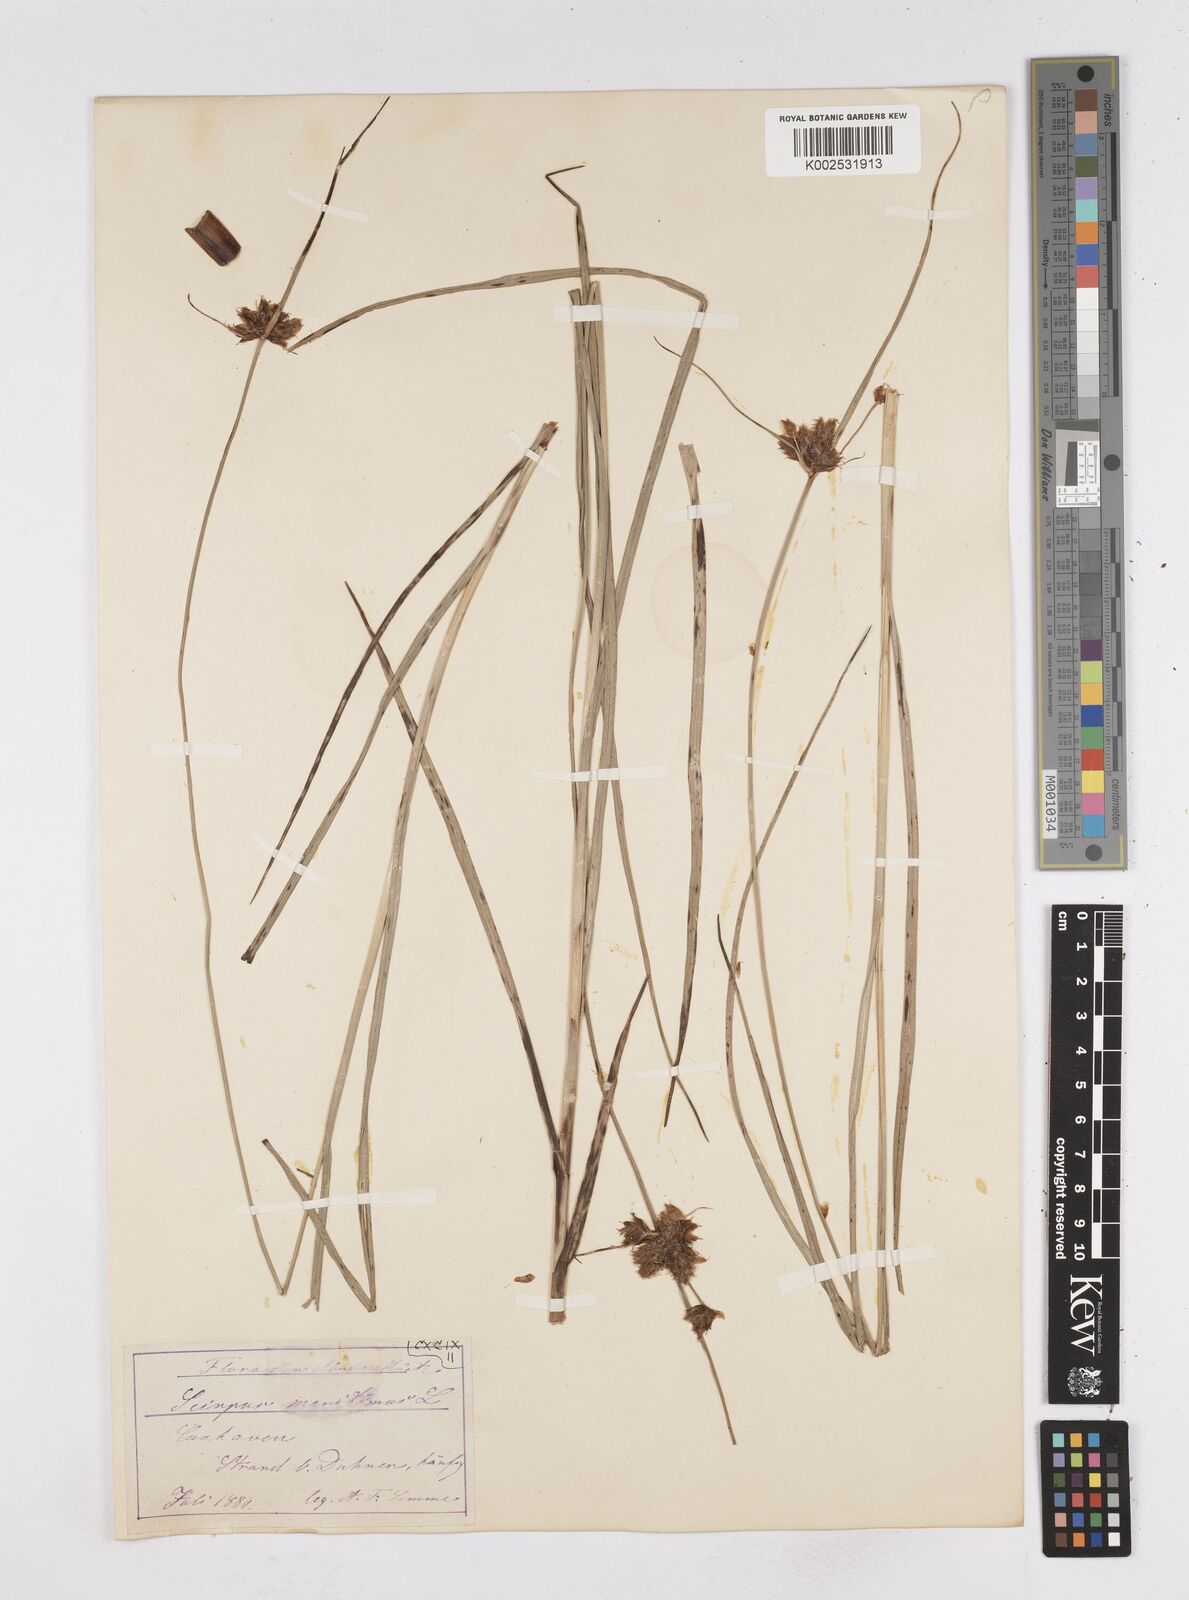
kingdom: Plantae
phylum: Tracheophyta
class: Liliopsida
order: Poales
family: Cyperaceae
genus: Bolboschoenus
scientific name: Bolboschoenus maritimus
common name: Sea club-rush
